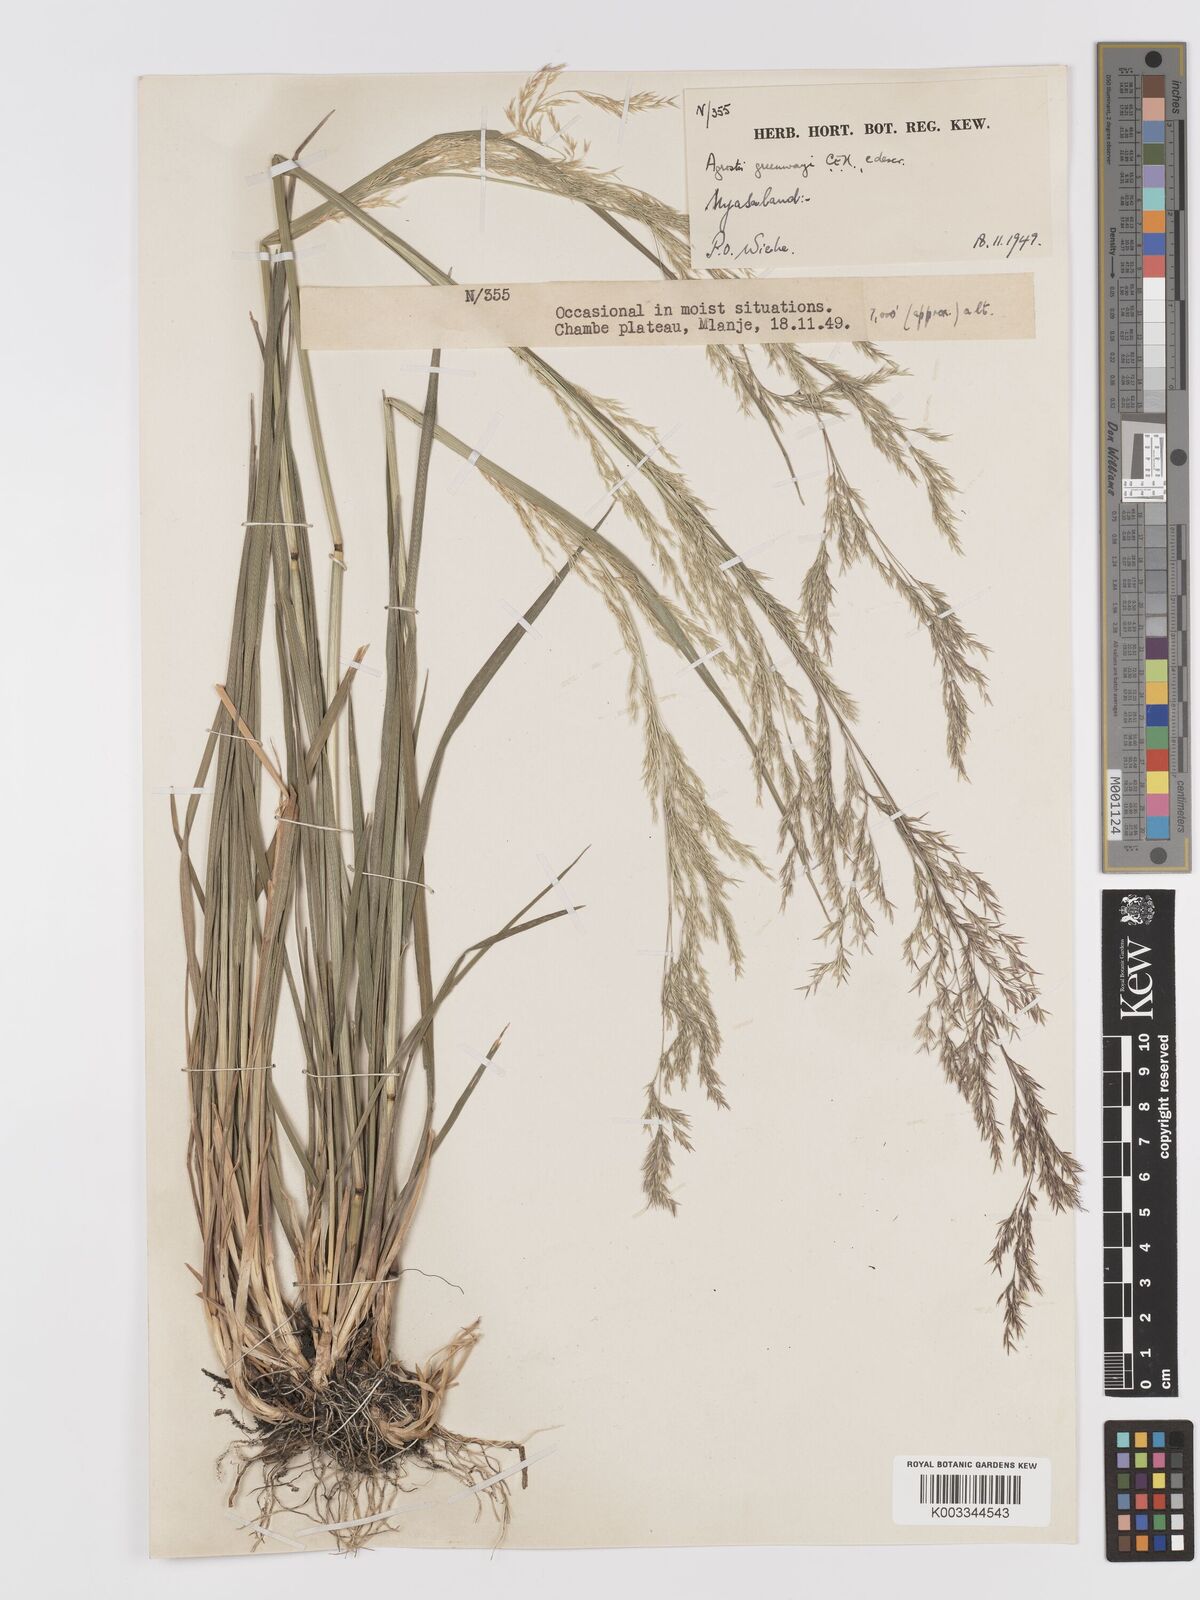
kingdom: Plantae
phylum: Tracheophyta
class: Liliopsida
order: Poales
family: Poaceae
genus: Agrostis
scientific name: Agrostis producta
